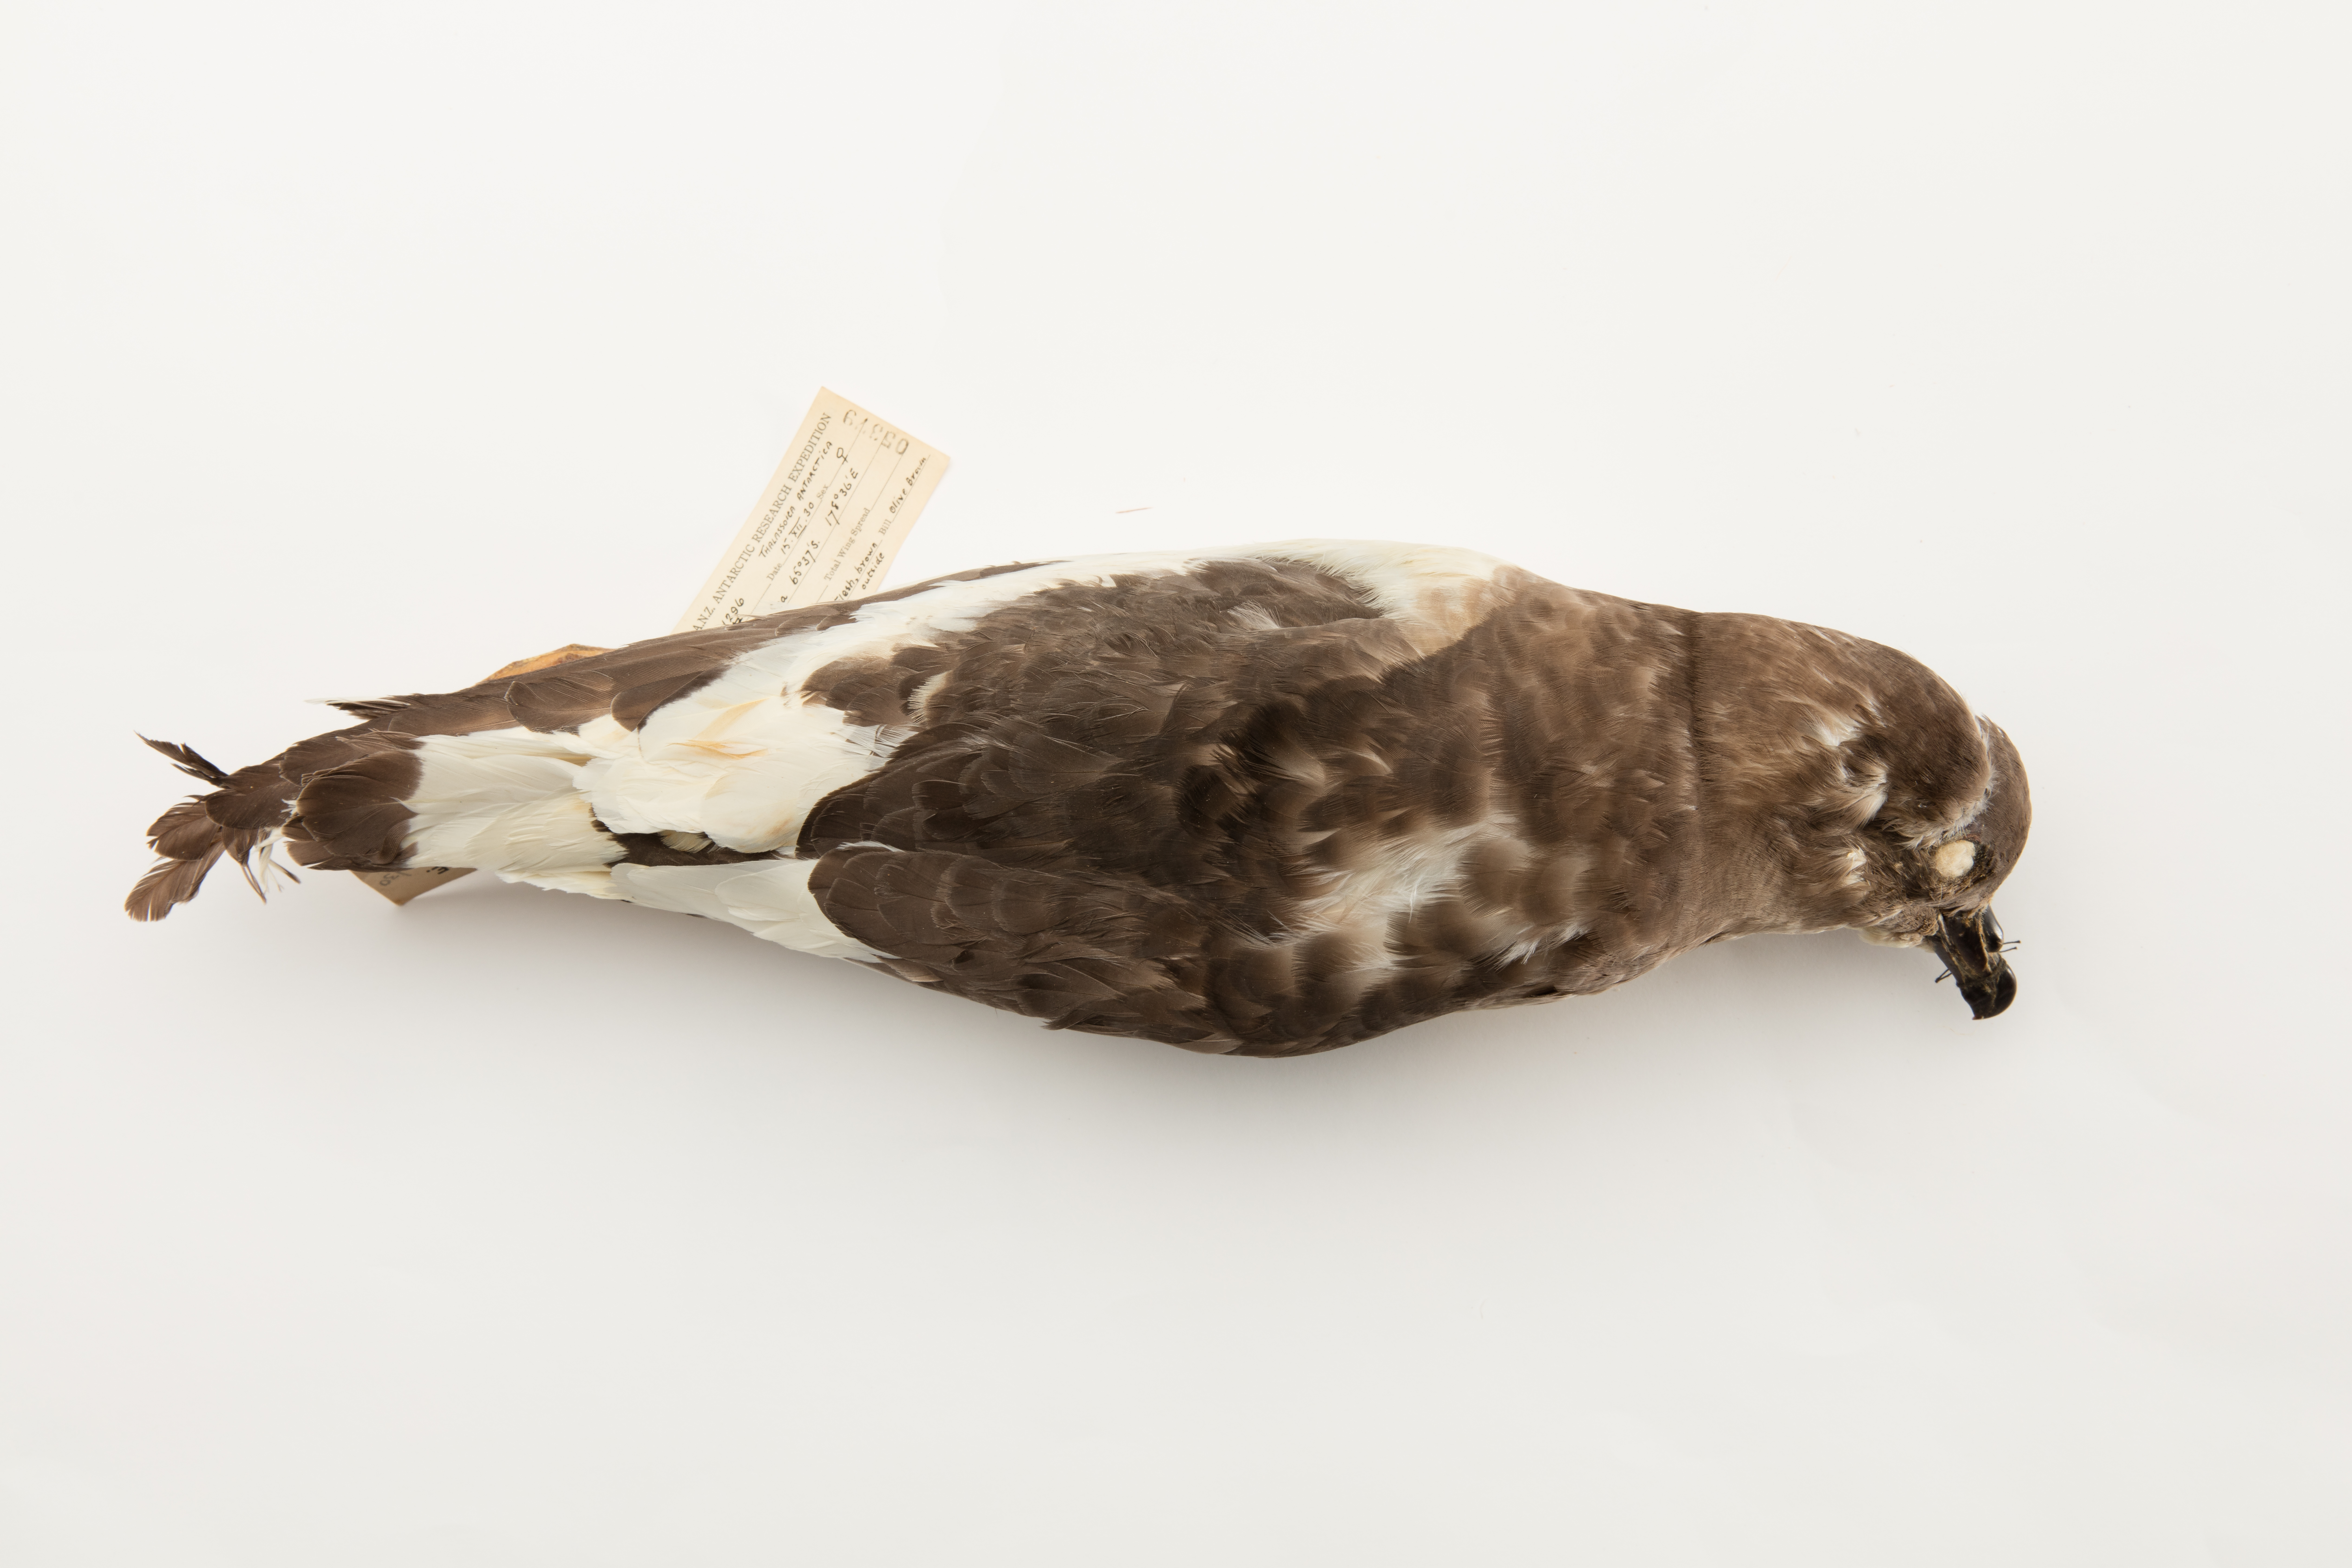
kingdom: Animalia
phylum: Chordata
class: Aves
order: Procellariiformes
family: Procellariidae
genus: Thalassoica
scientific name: Thalassoica antarctica
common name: Antarctic petrel
